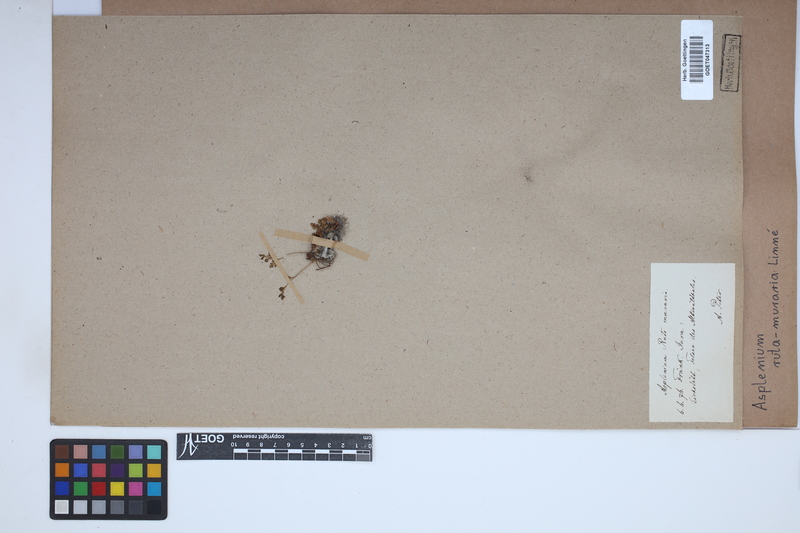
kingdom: Plantae
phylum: Tracheophyta
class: Polypodiopsida
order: Polypodiales
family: Aspleniaceae
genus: Asplenium
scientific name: Asplenium ruta-muraria
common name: Wall-rue
